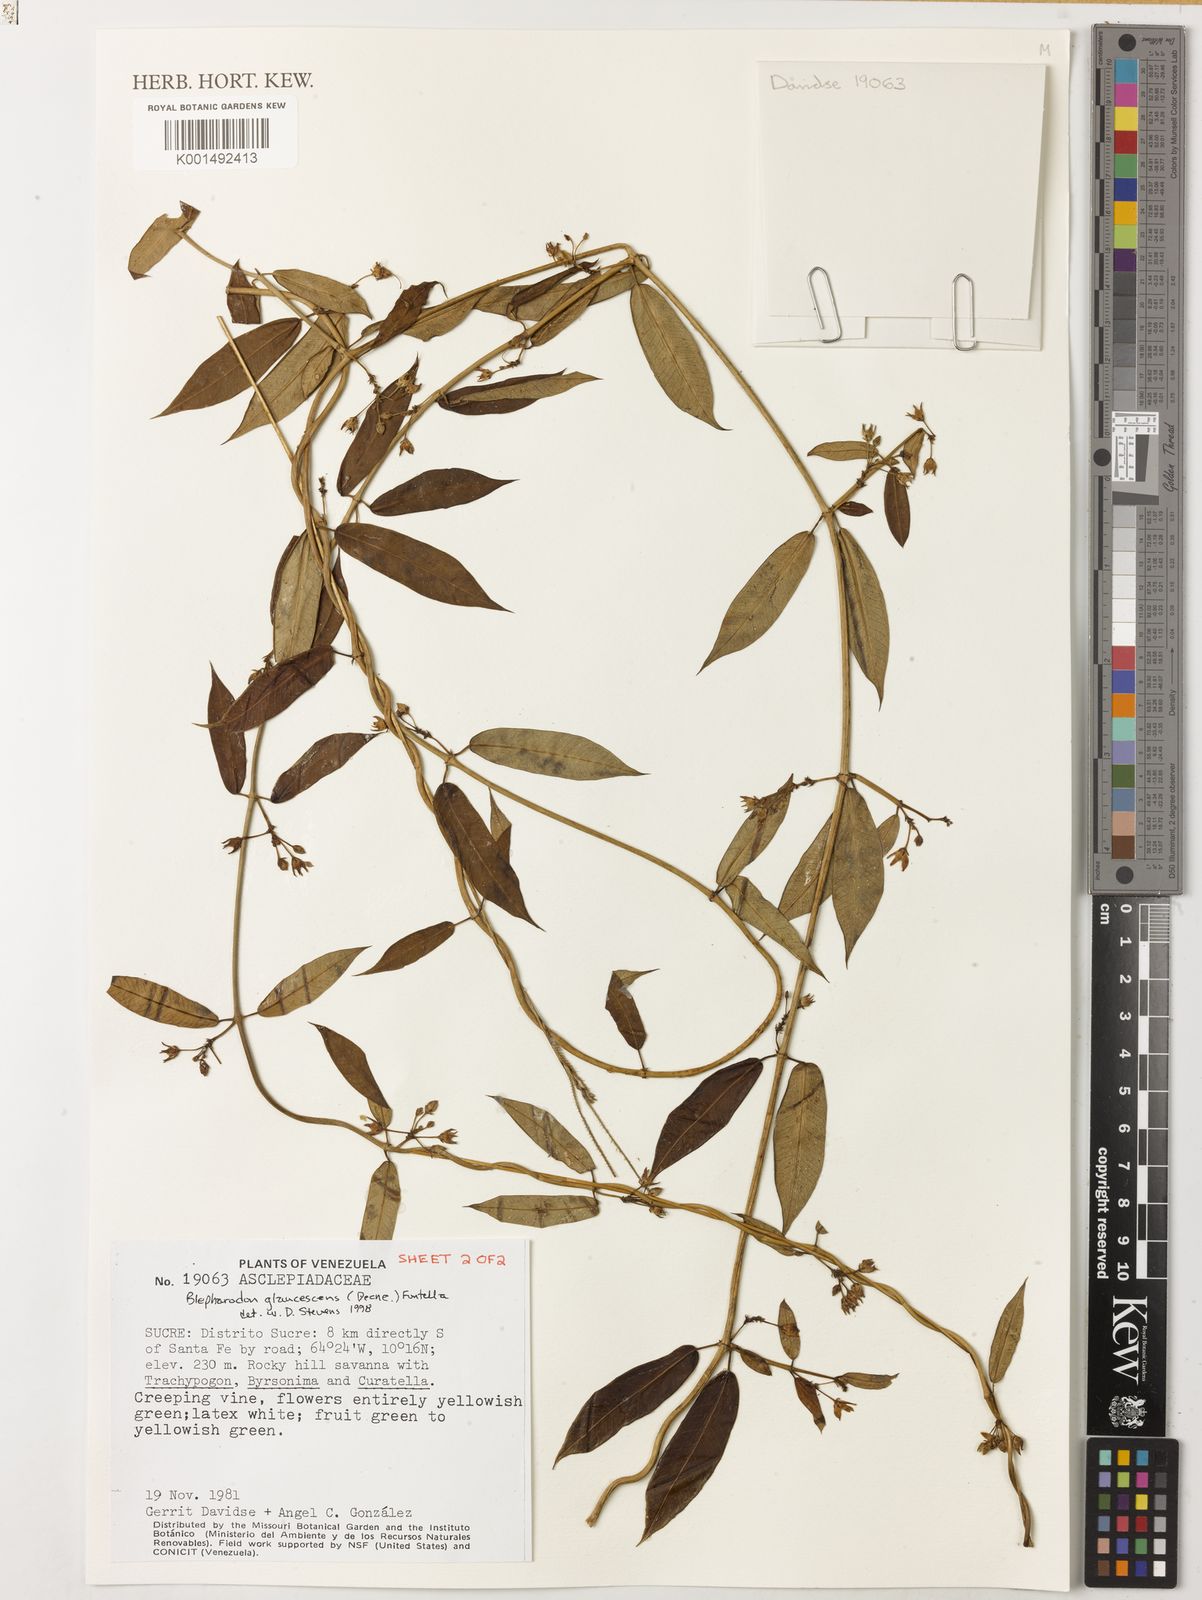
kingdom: Plantae
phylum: Tracheophyta
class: Magnoliopsida
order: Gentianales
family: Apocynaceae
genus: Blepharodon
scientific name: Blepharodon glaucescens
